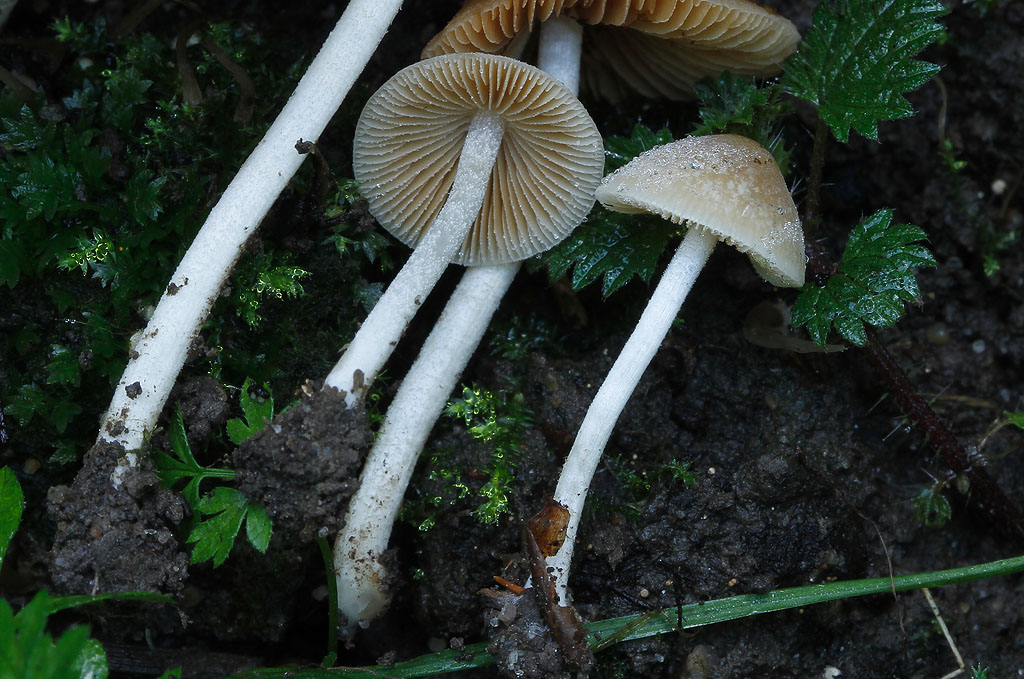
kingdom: Fungi
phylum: Basidiomycota
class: Agaricomycetes
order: Agaricales
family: Bolbitiaceae
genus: Conocybe
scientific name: Conocybe striipes
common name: knippe-dansehat
